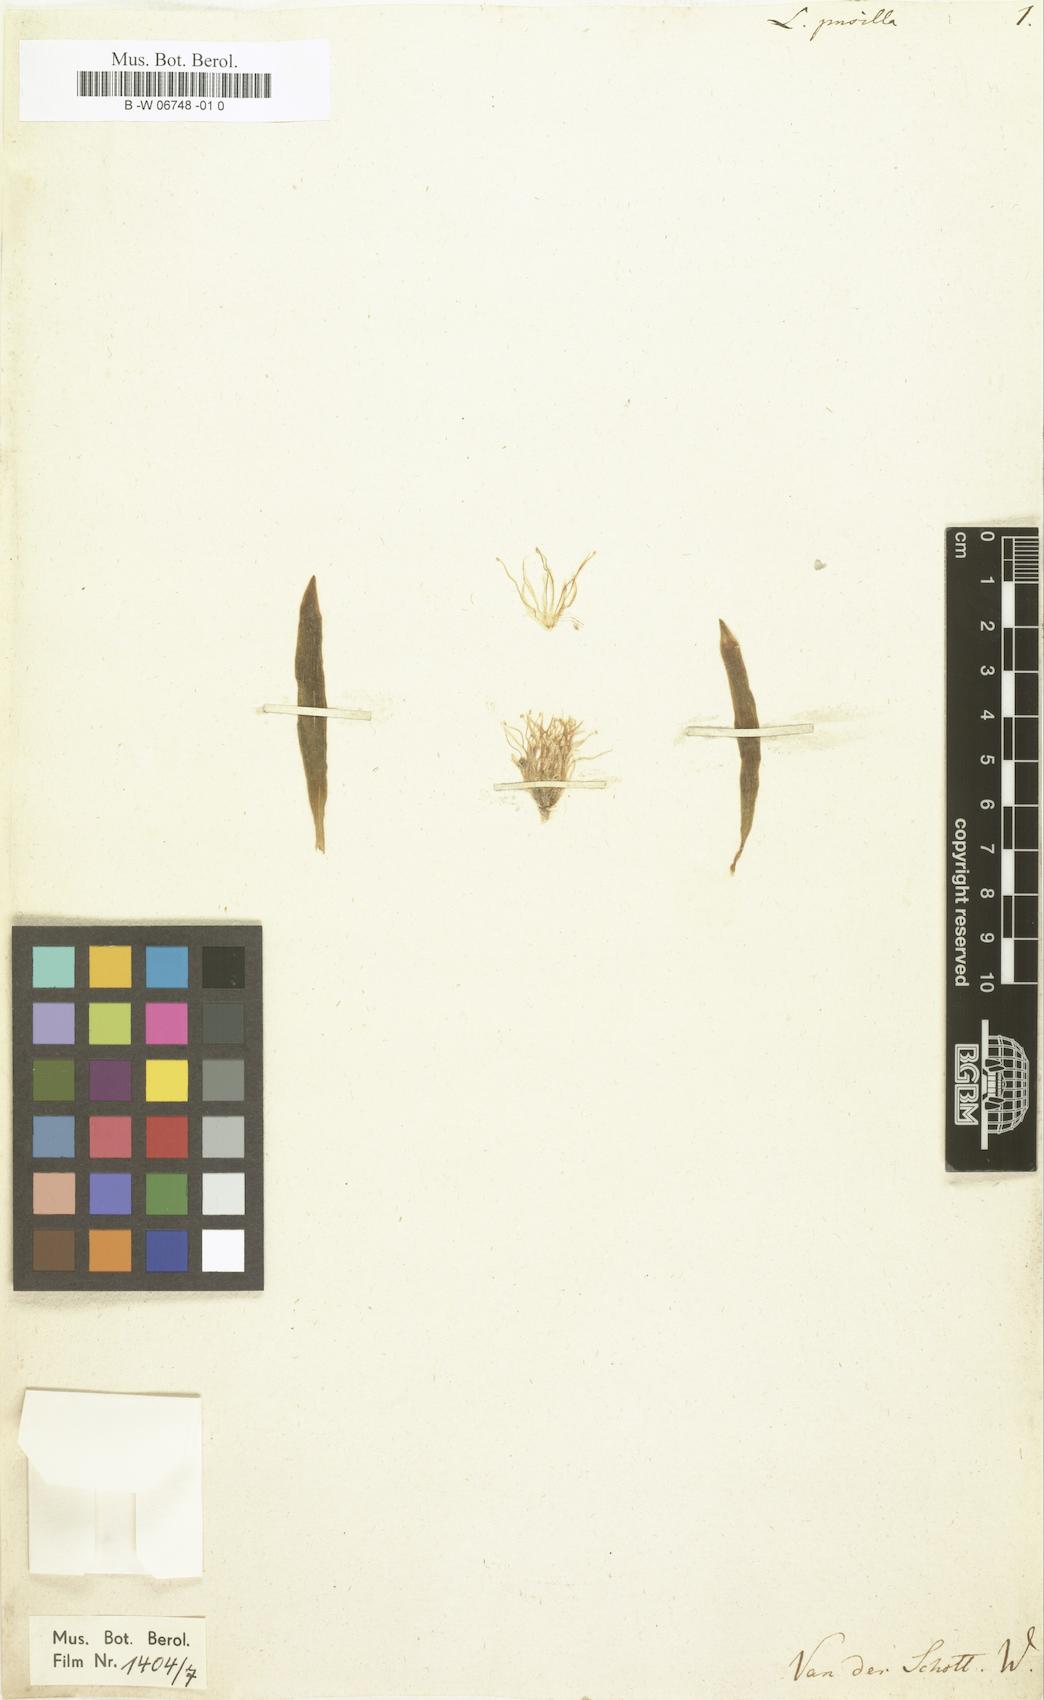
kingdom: Plantae
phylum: Tracheophyta
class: Liliopsida
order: Asparagales
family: Asparagaceae
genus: Lachenalia
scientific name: Lachenalia pusilla
